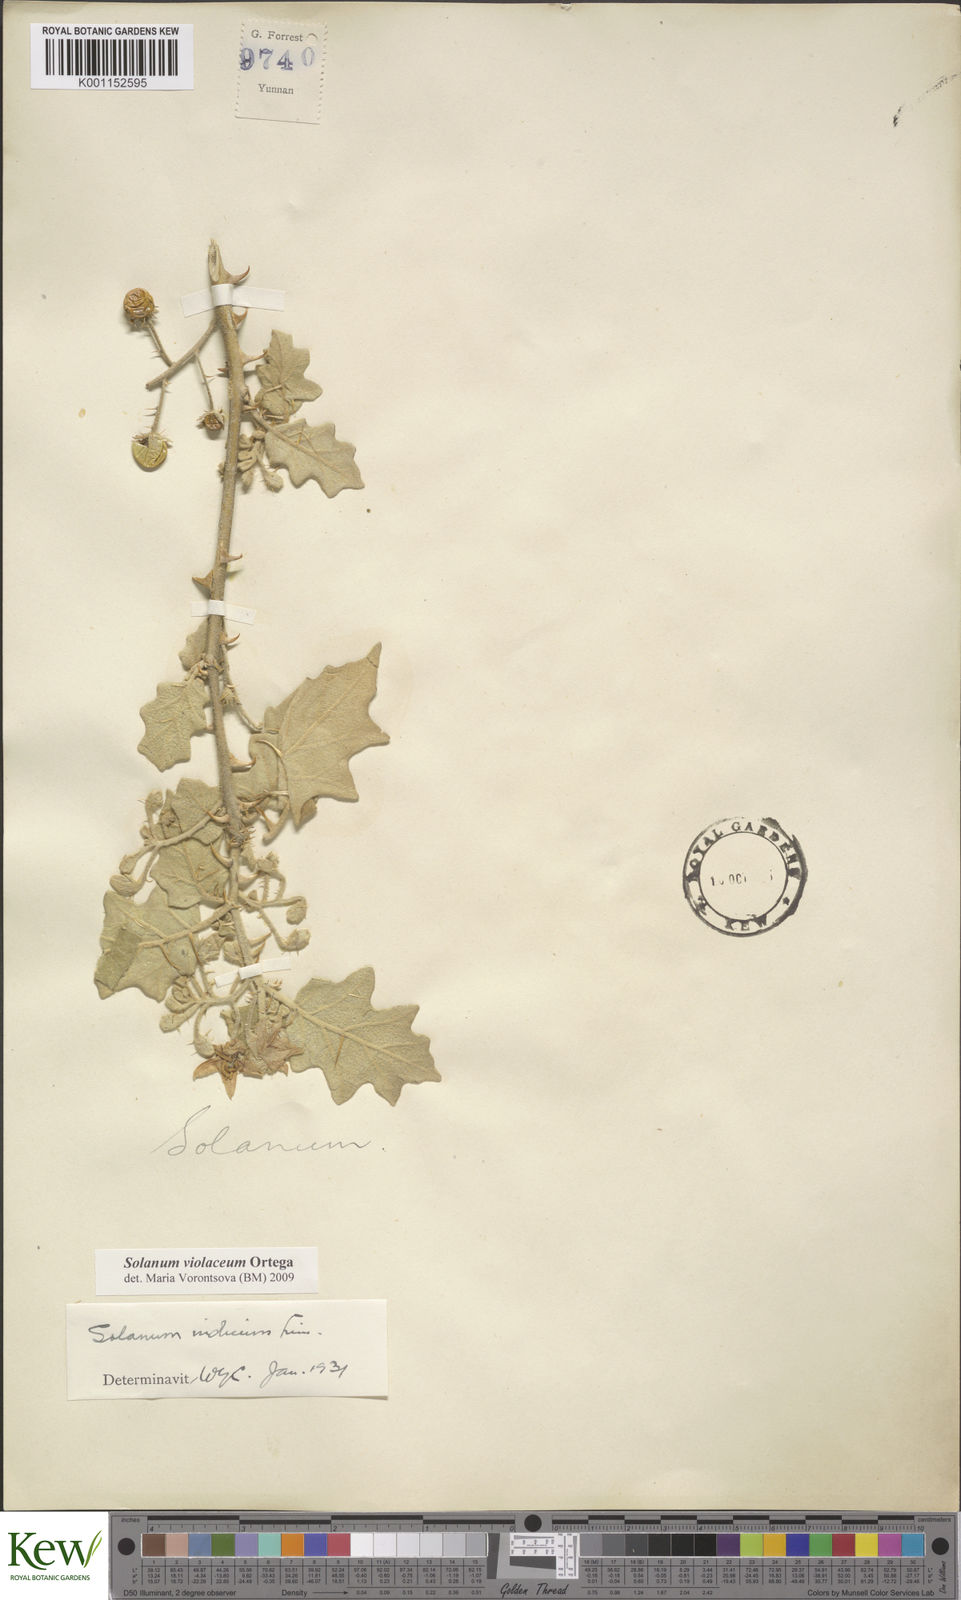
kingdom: Plantae
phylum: Tracheophyta
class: Magnoliopsida
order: Solanales
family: Solanaceae
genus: Solanum
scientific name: Solanum violaceum
